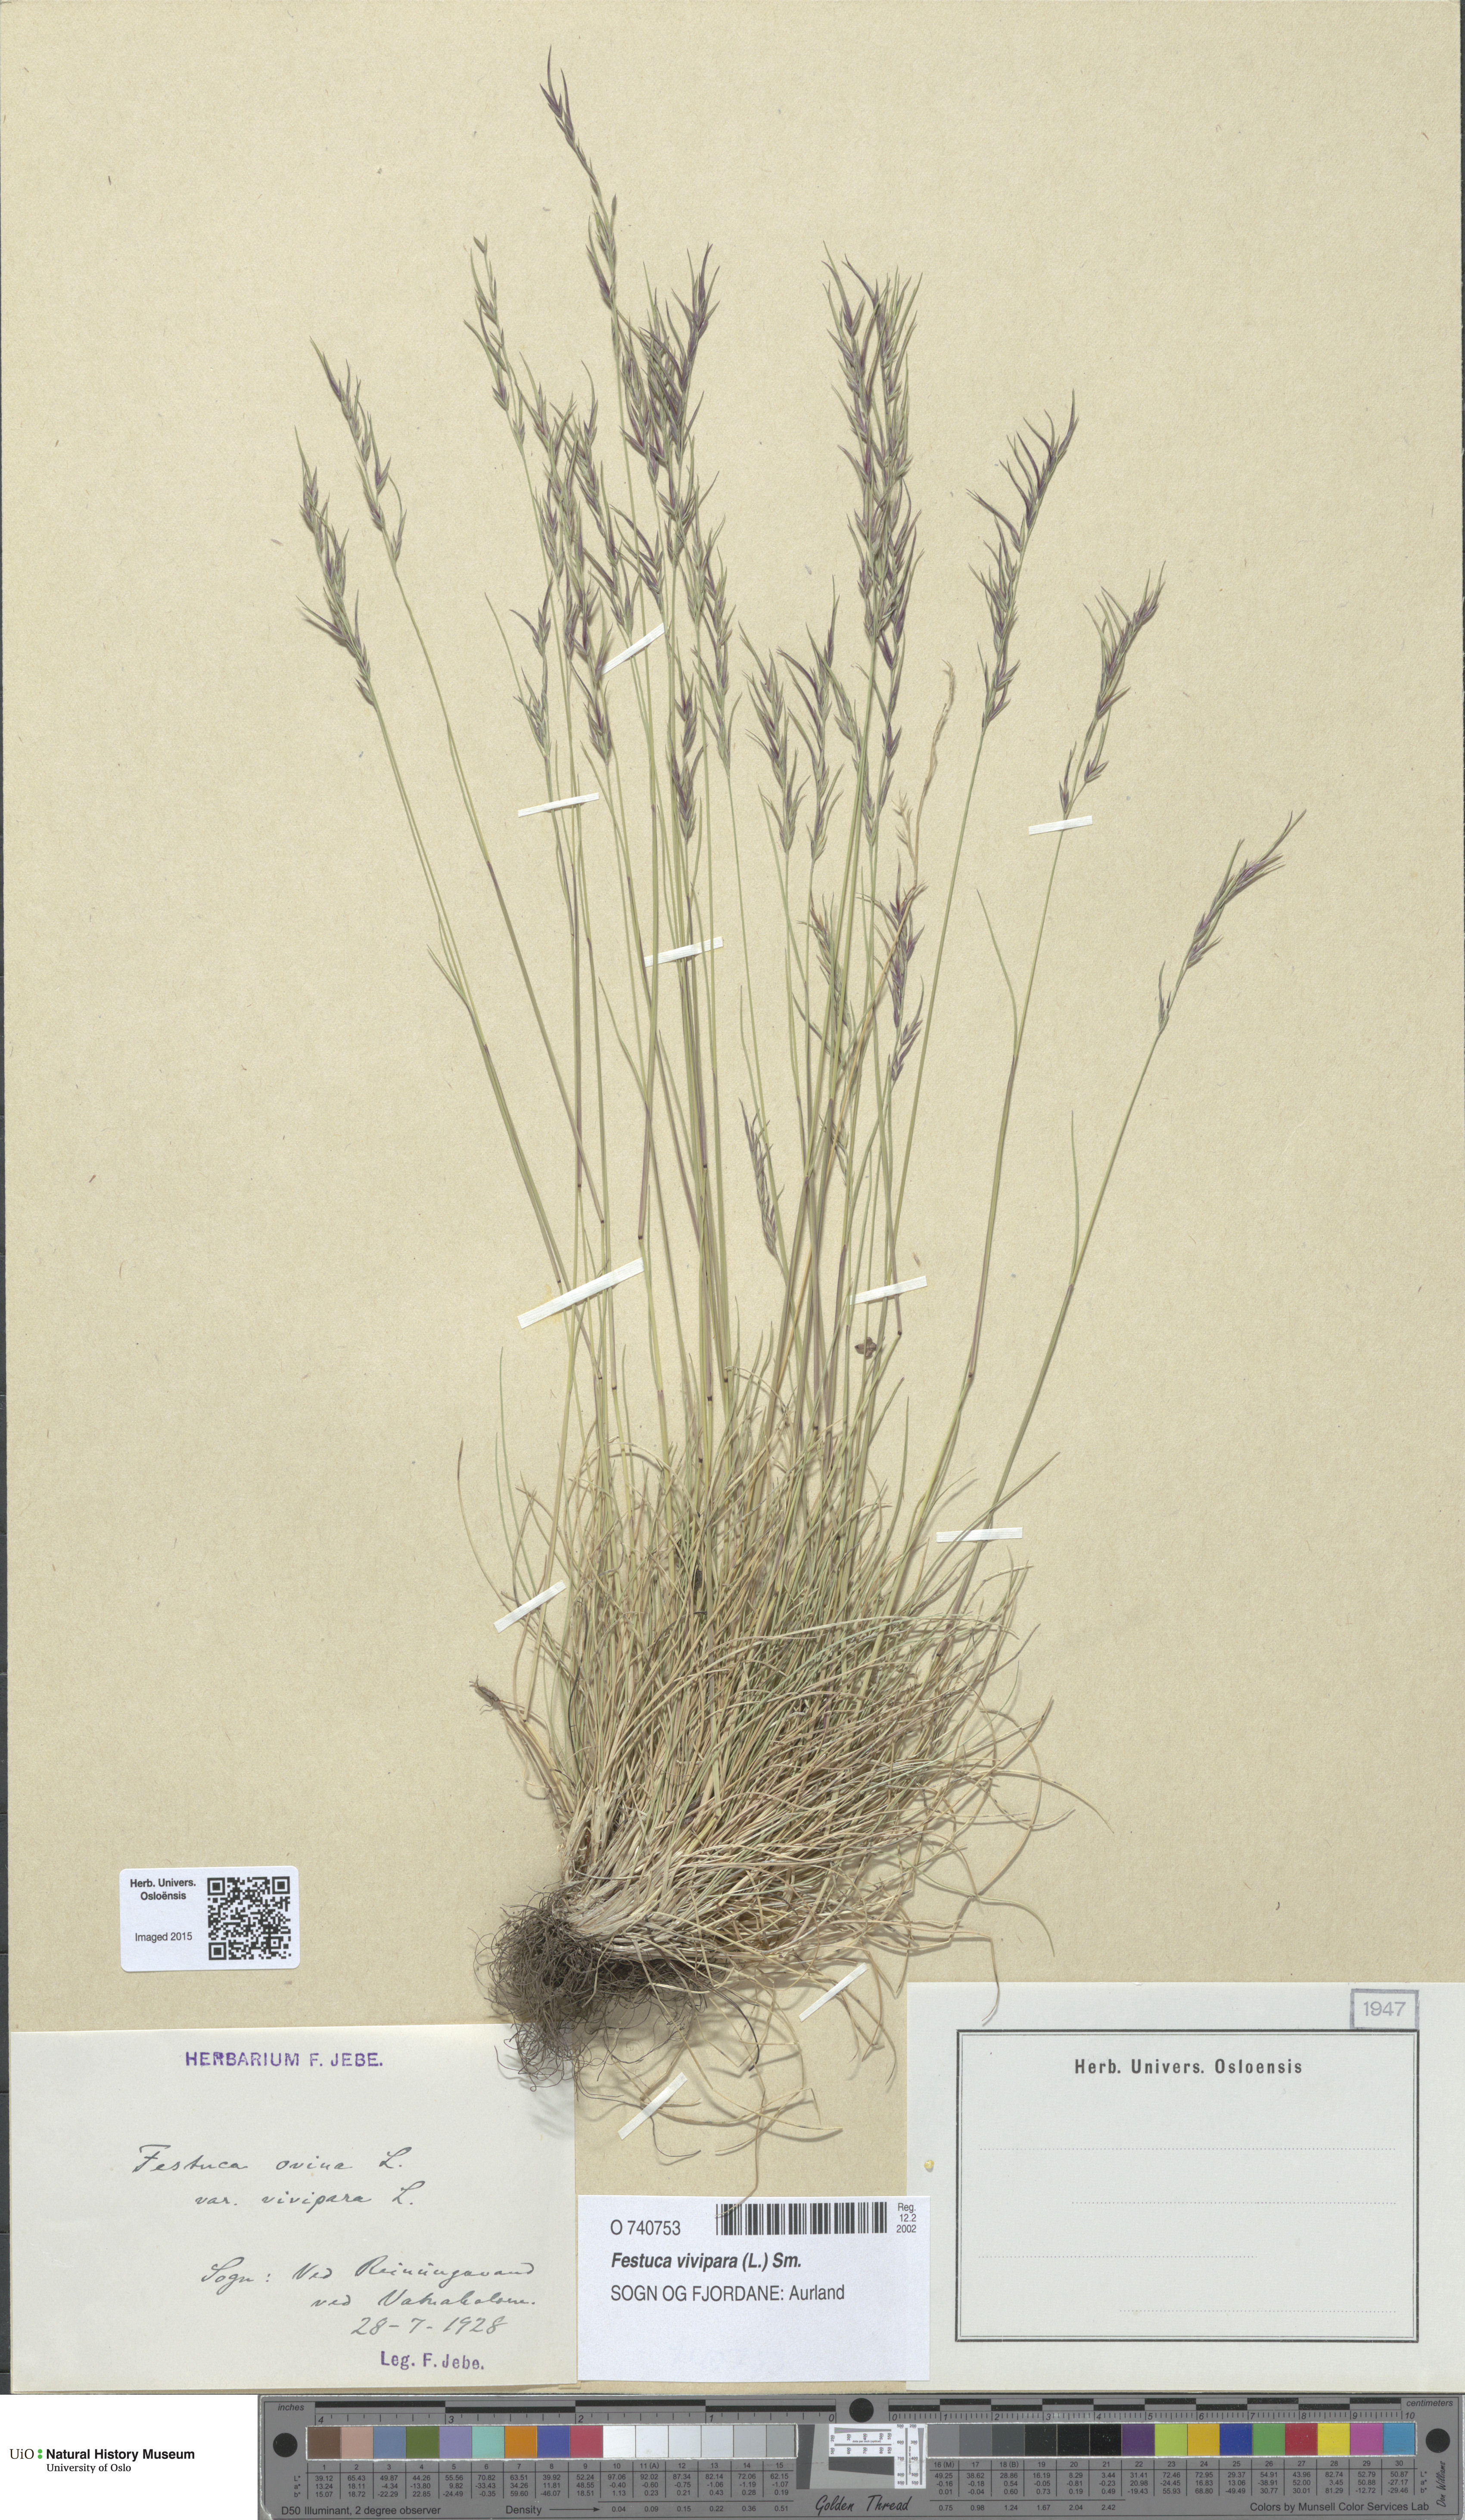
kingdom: Plantae
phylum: Tracheophyta
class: Liliopsida
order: Poales
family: Poaceae
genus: Festuca
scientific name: Festuca vivipara
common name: Viviparous sheep's-fescue
